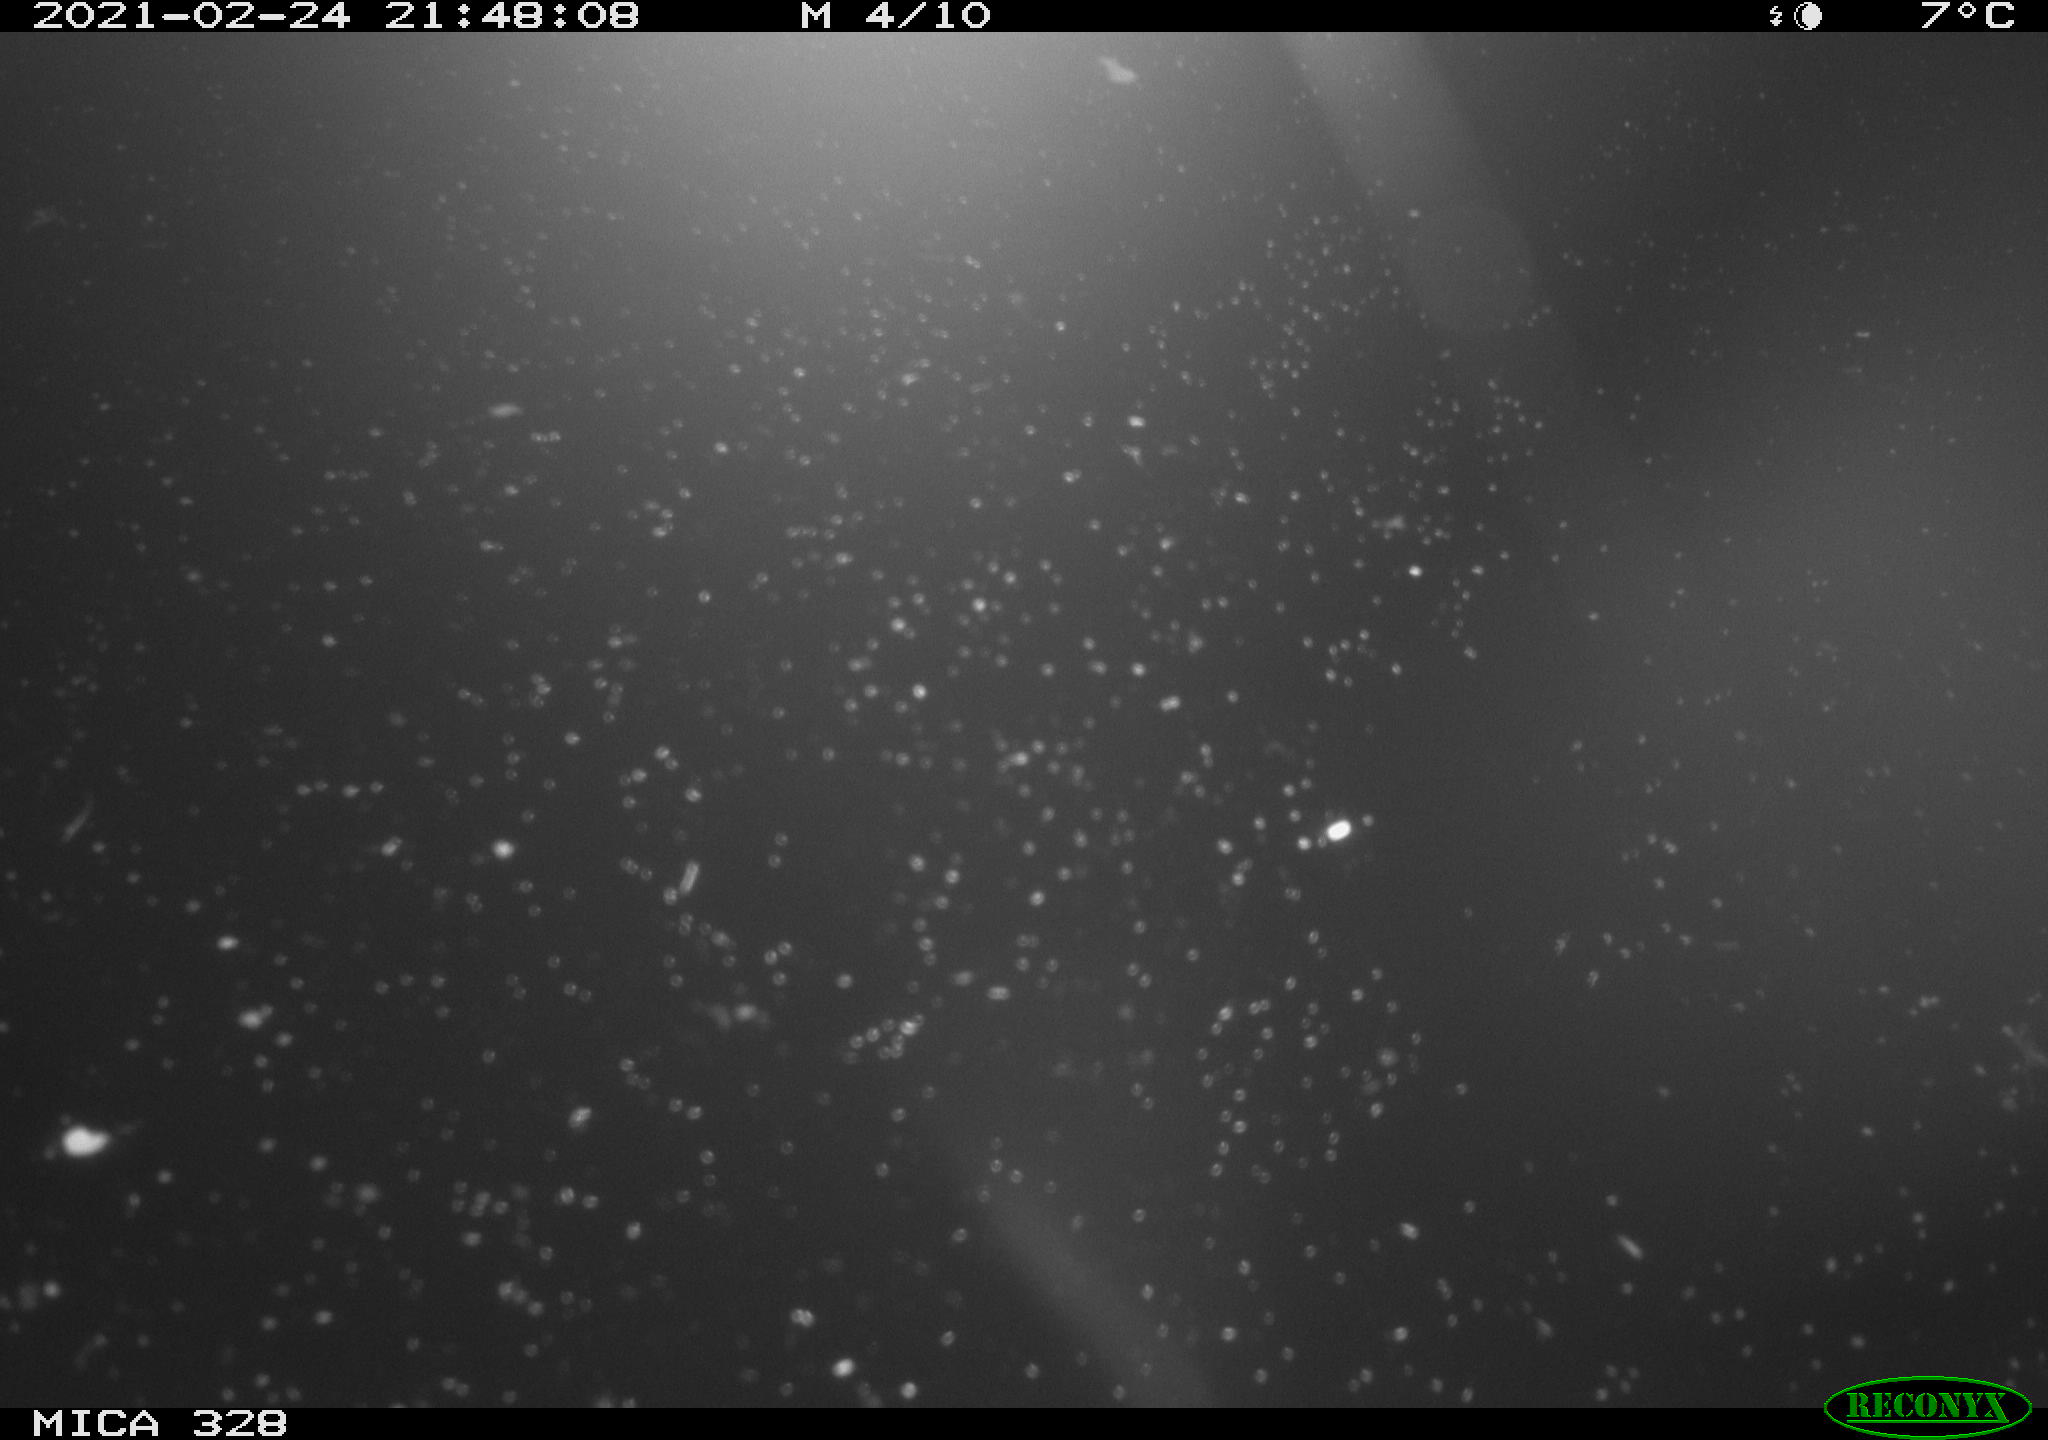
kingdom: Animalia
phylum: Chordata
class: Mammalia
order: Rodentia
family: Myocastoridae
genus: Myocastor
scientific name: Myocastor coypus
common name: Coypu
